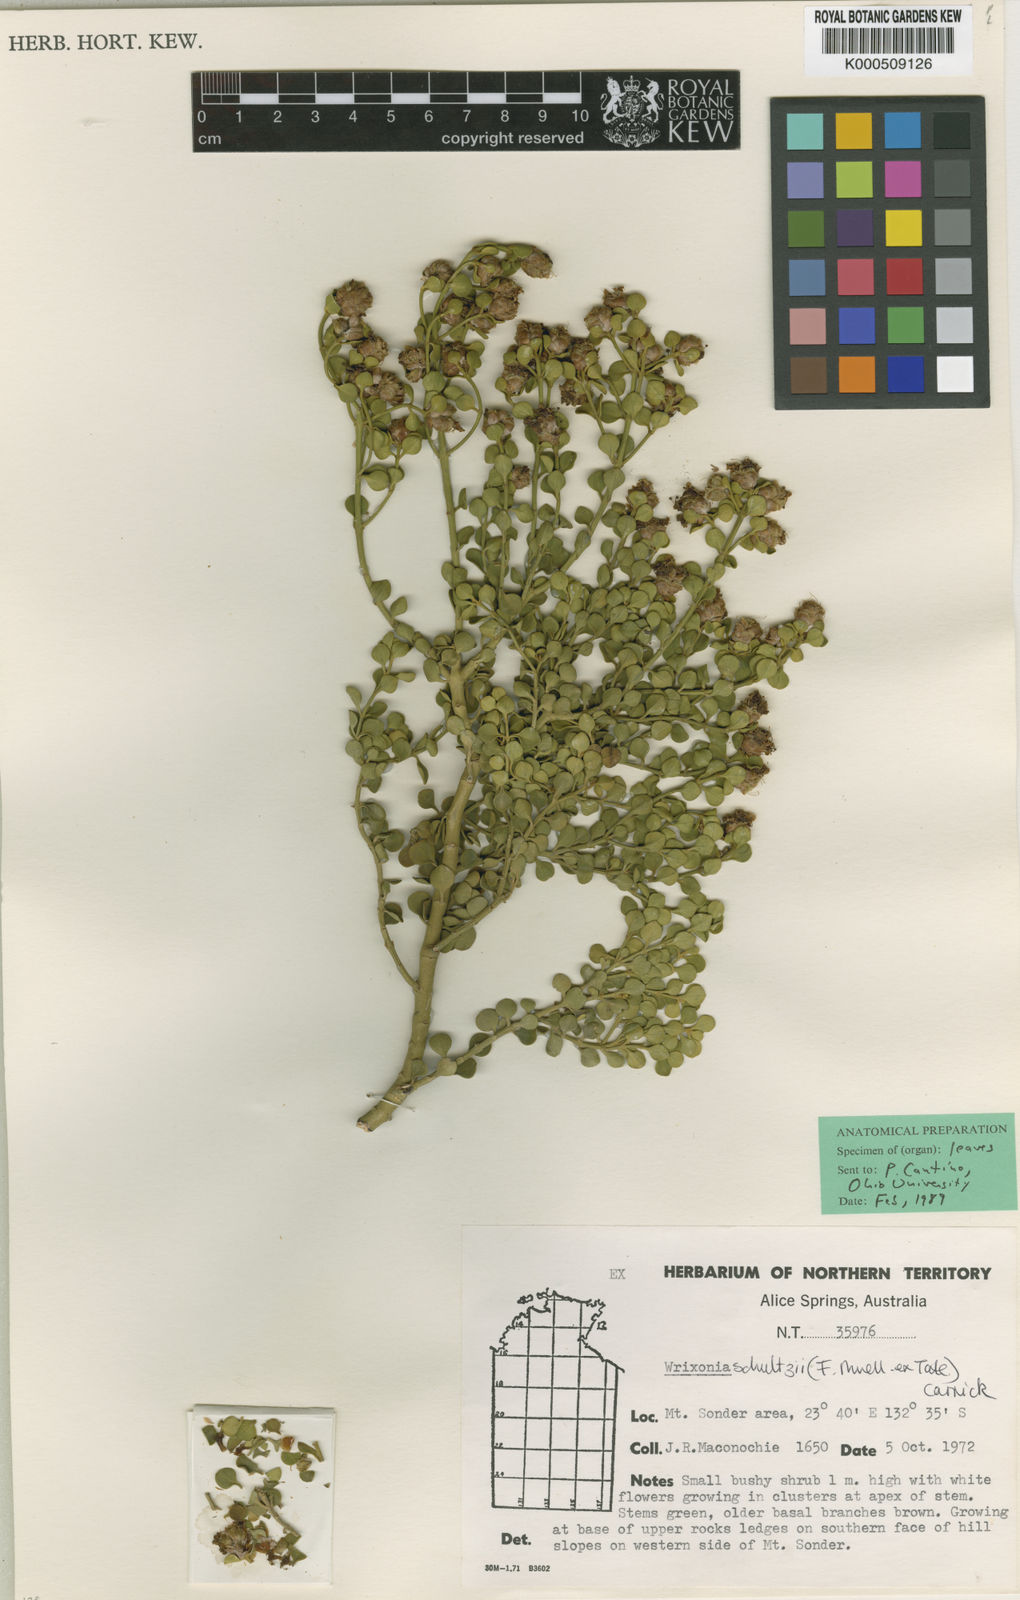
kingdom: Plantae
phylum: Tracheophyta
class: Magnoliopsida
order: Lamiales
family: Lamiaceae
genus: Prostanthera
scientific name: Prostanthera schultzii
